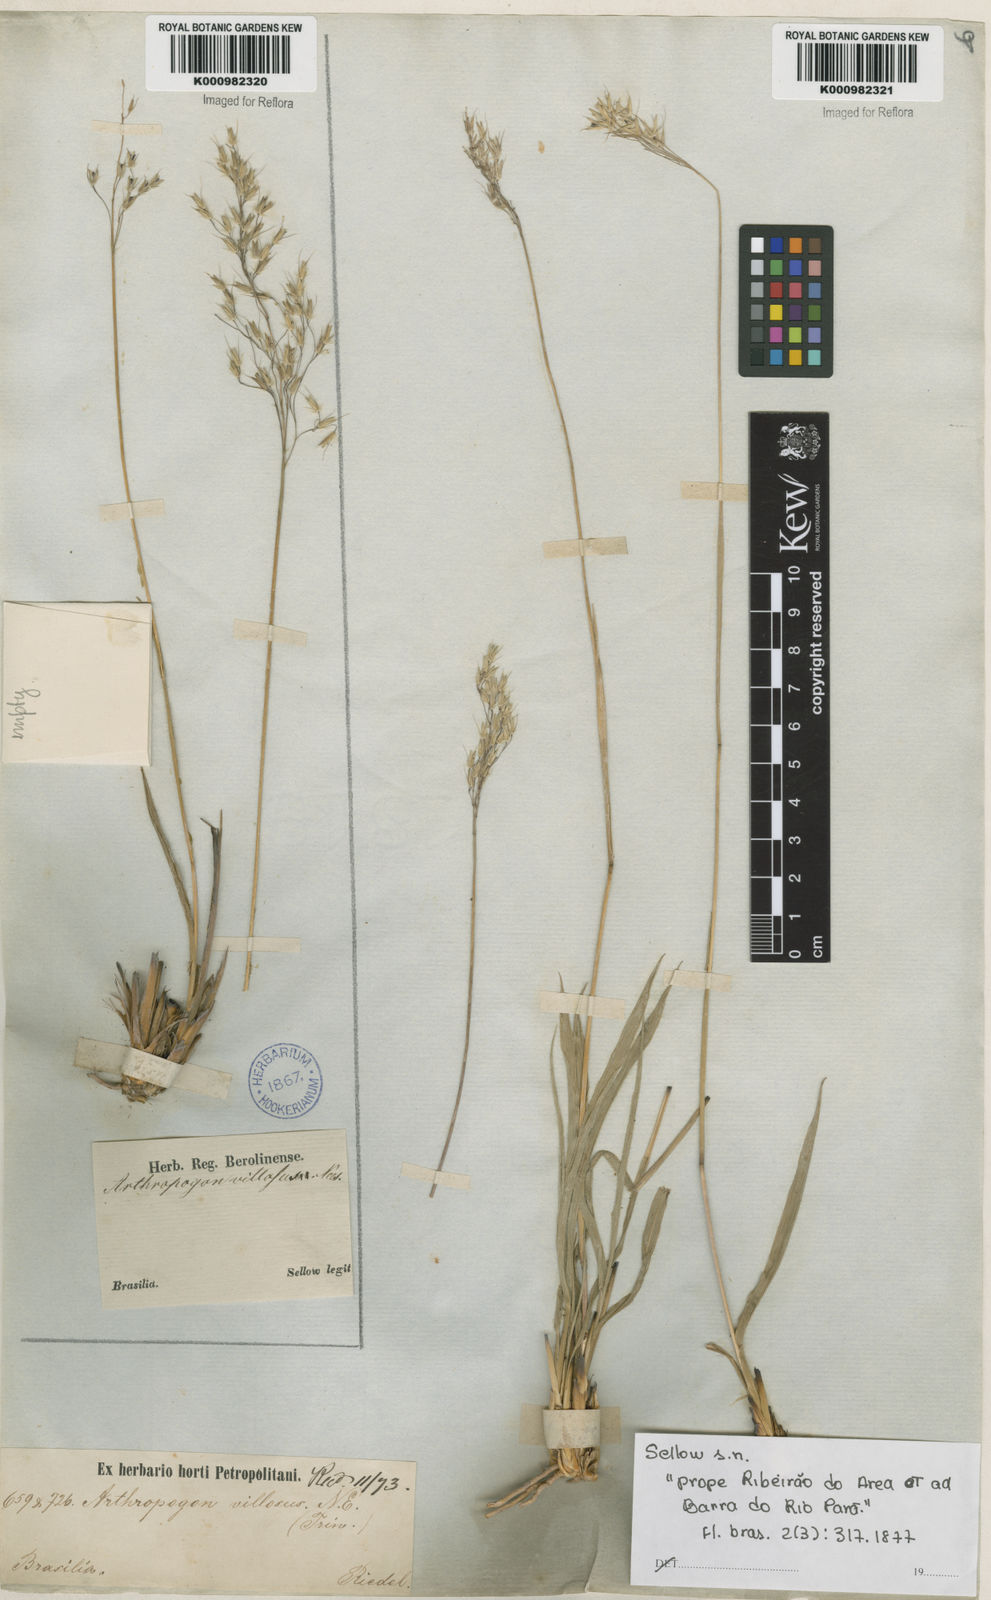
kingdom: Plantae
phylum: Tracheophyta
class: Liliopsida
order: Poales
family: Poaceae
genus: Arthropogon
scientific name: Arthropogon villosus
